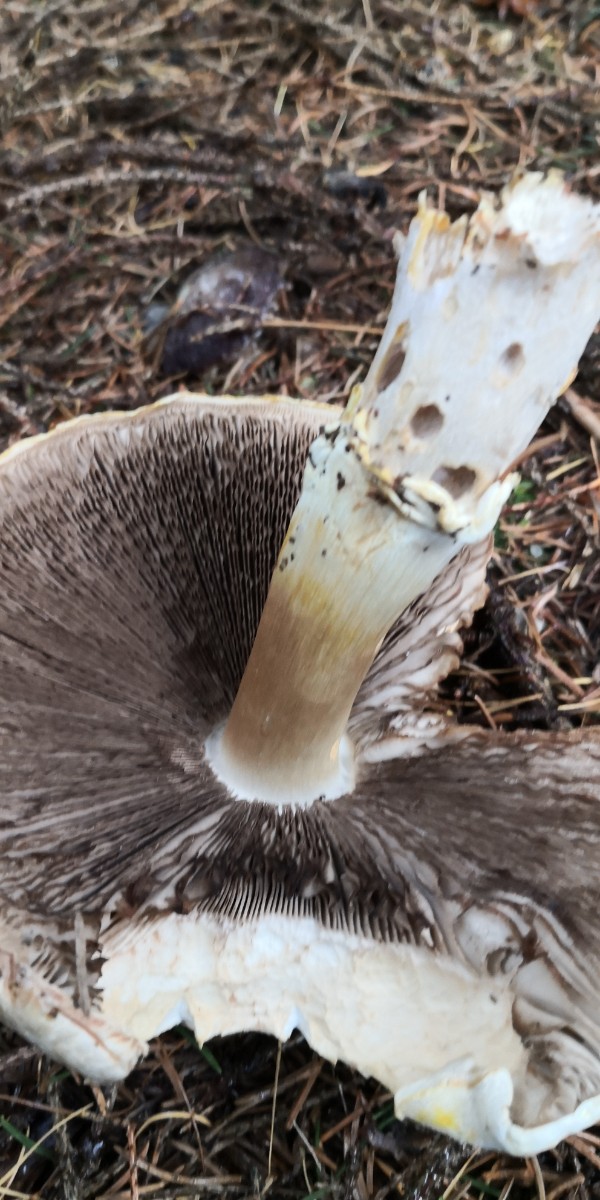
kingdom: Fungi
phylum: Basidiomycota
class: Agaricomycetes
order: Agaricales
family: Agaricaceae
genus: Agaricus
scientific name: Agaricus
